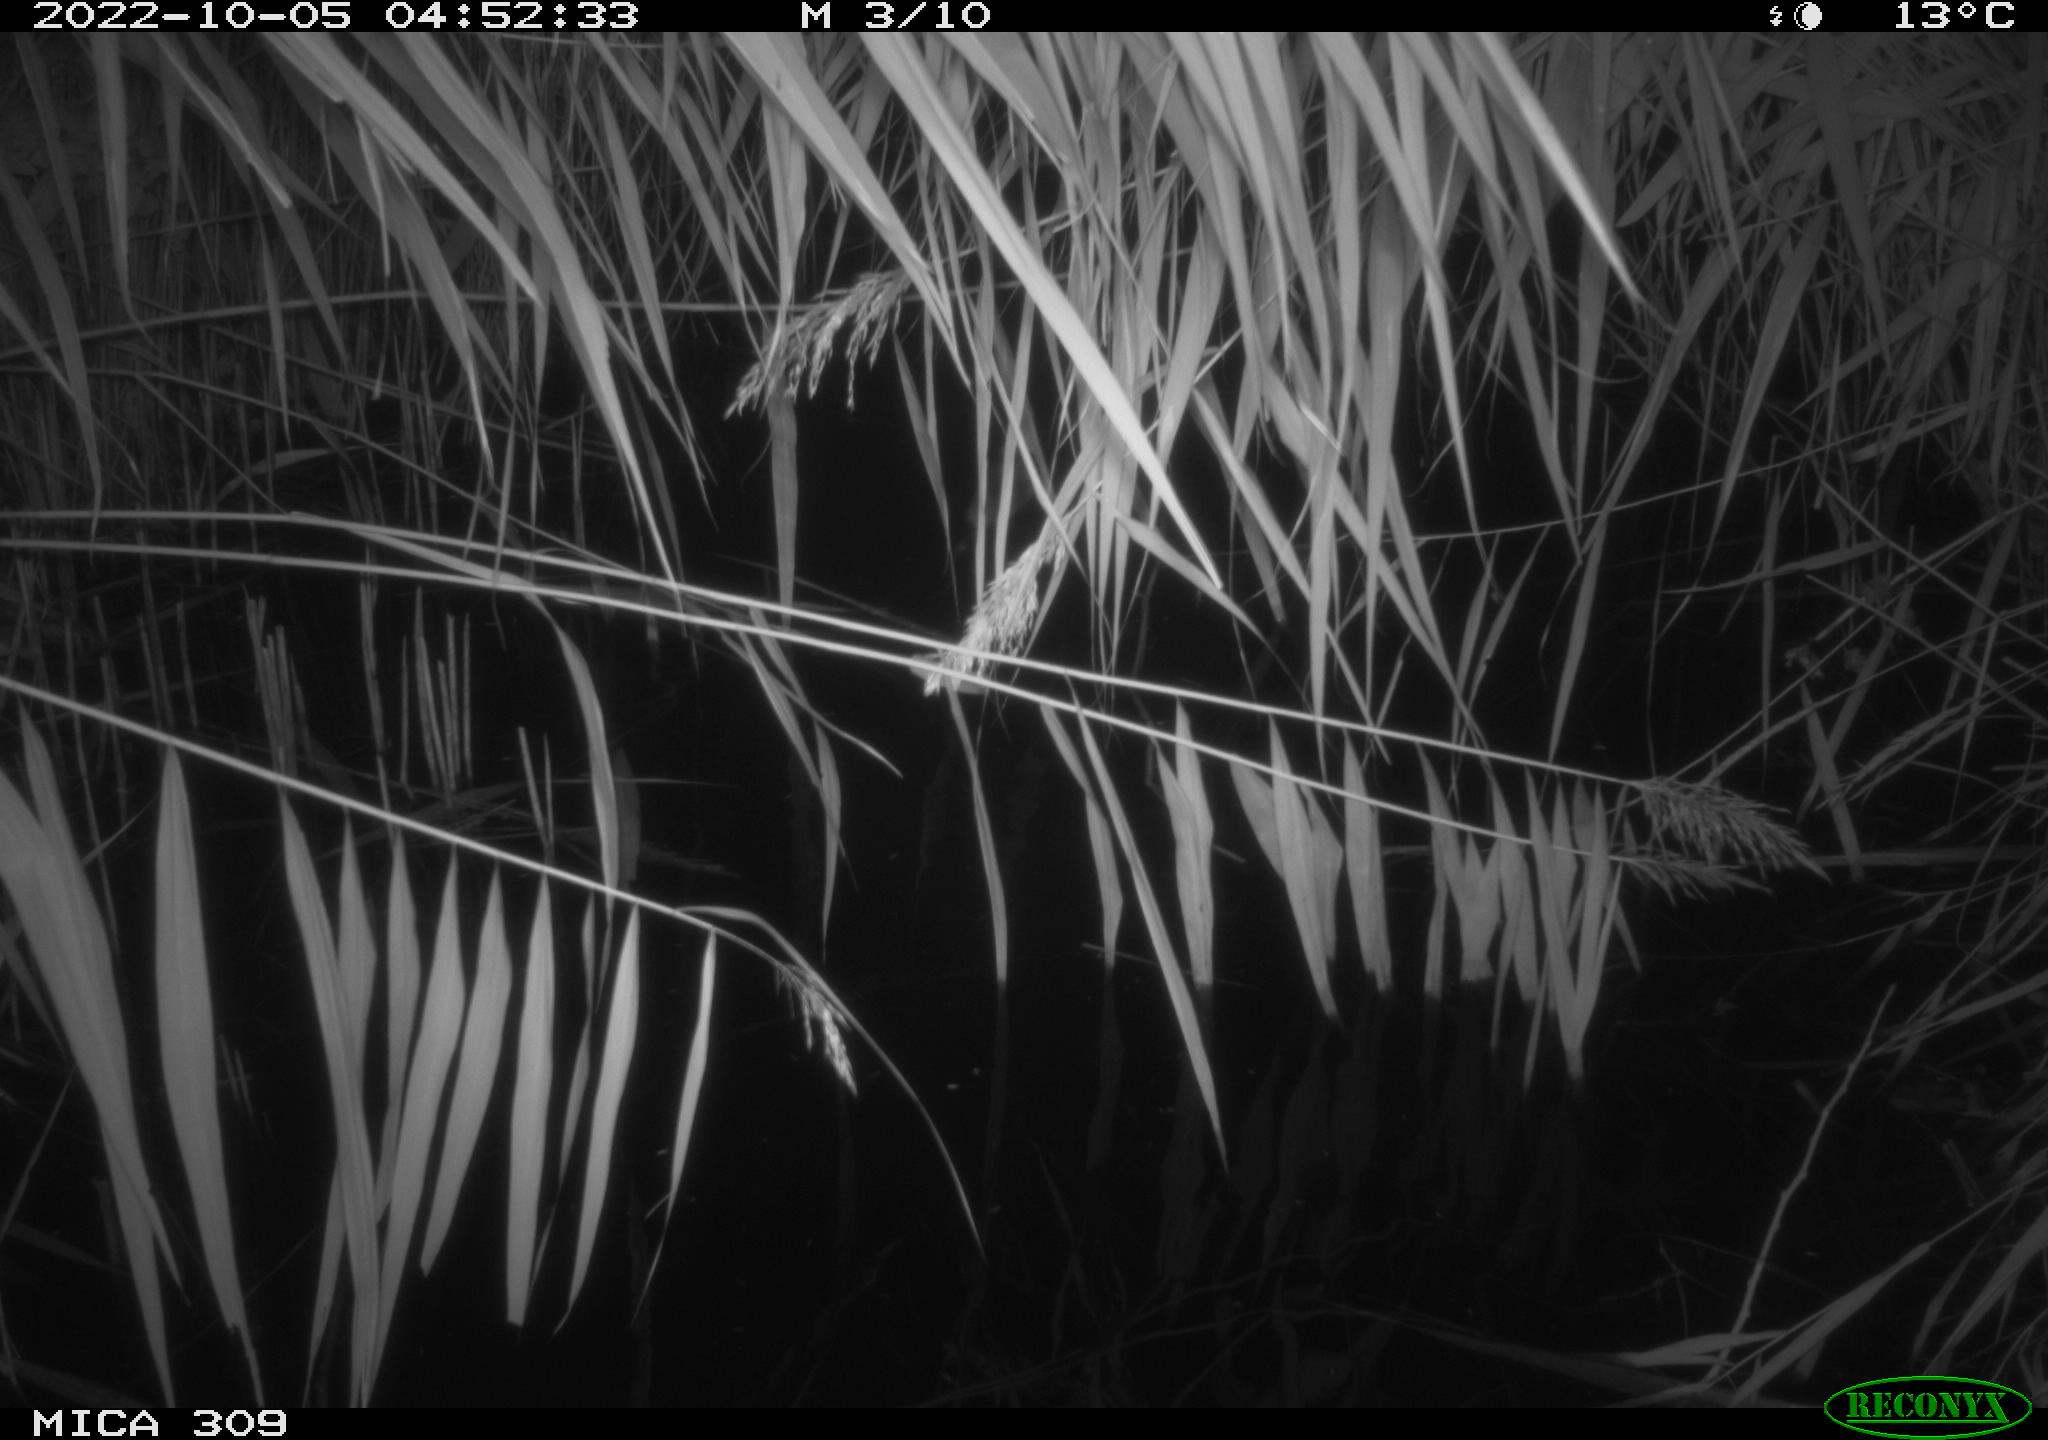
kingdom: Animalia
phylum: Chordata
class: Mammalia
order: Rodentia
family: Muridae
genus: Rattus
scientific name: Rattus norvegicus
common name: Brown rat
